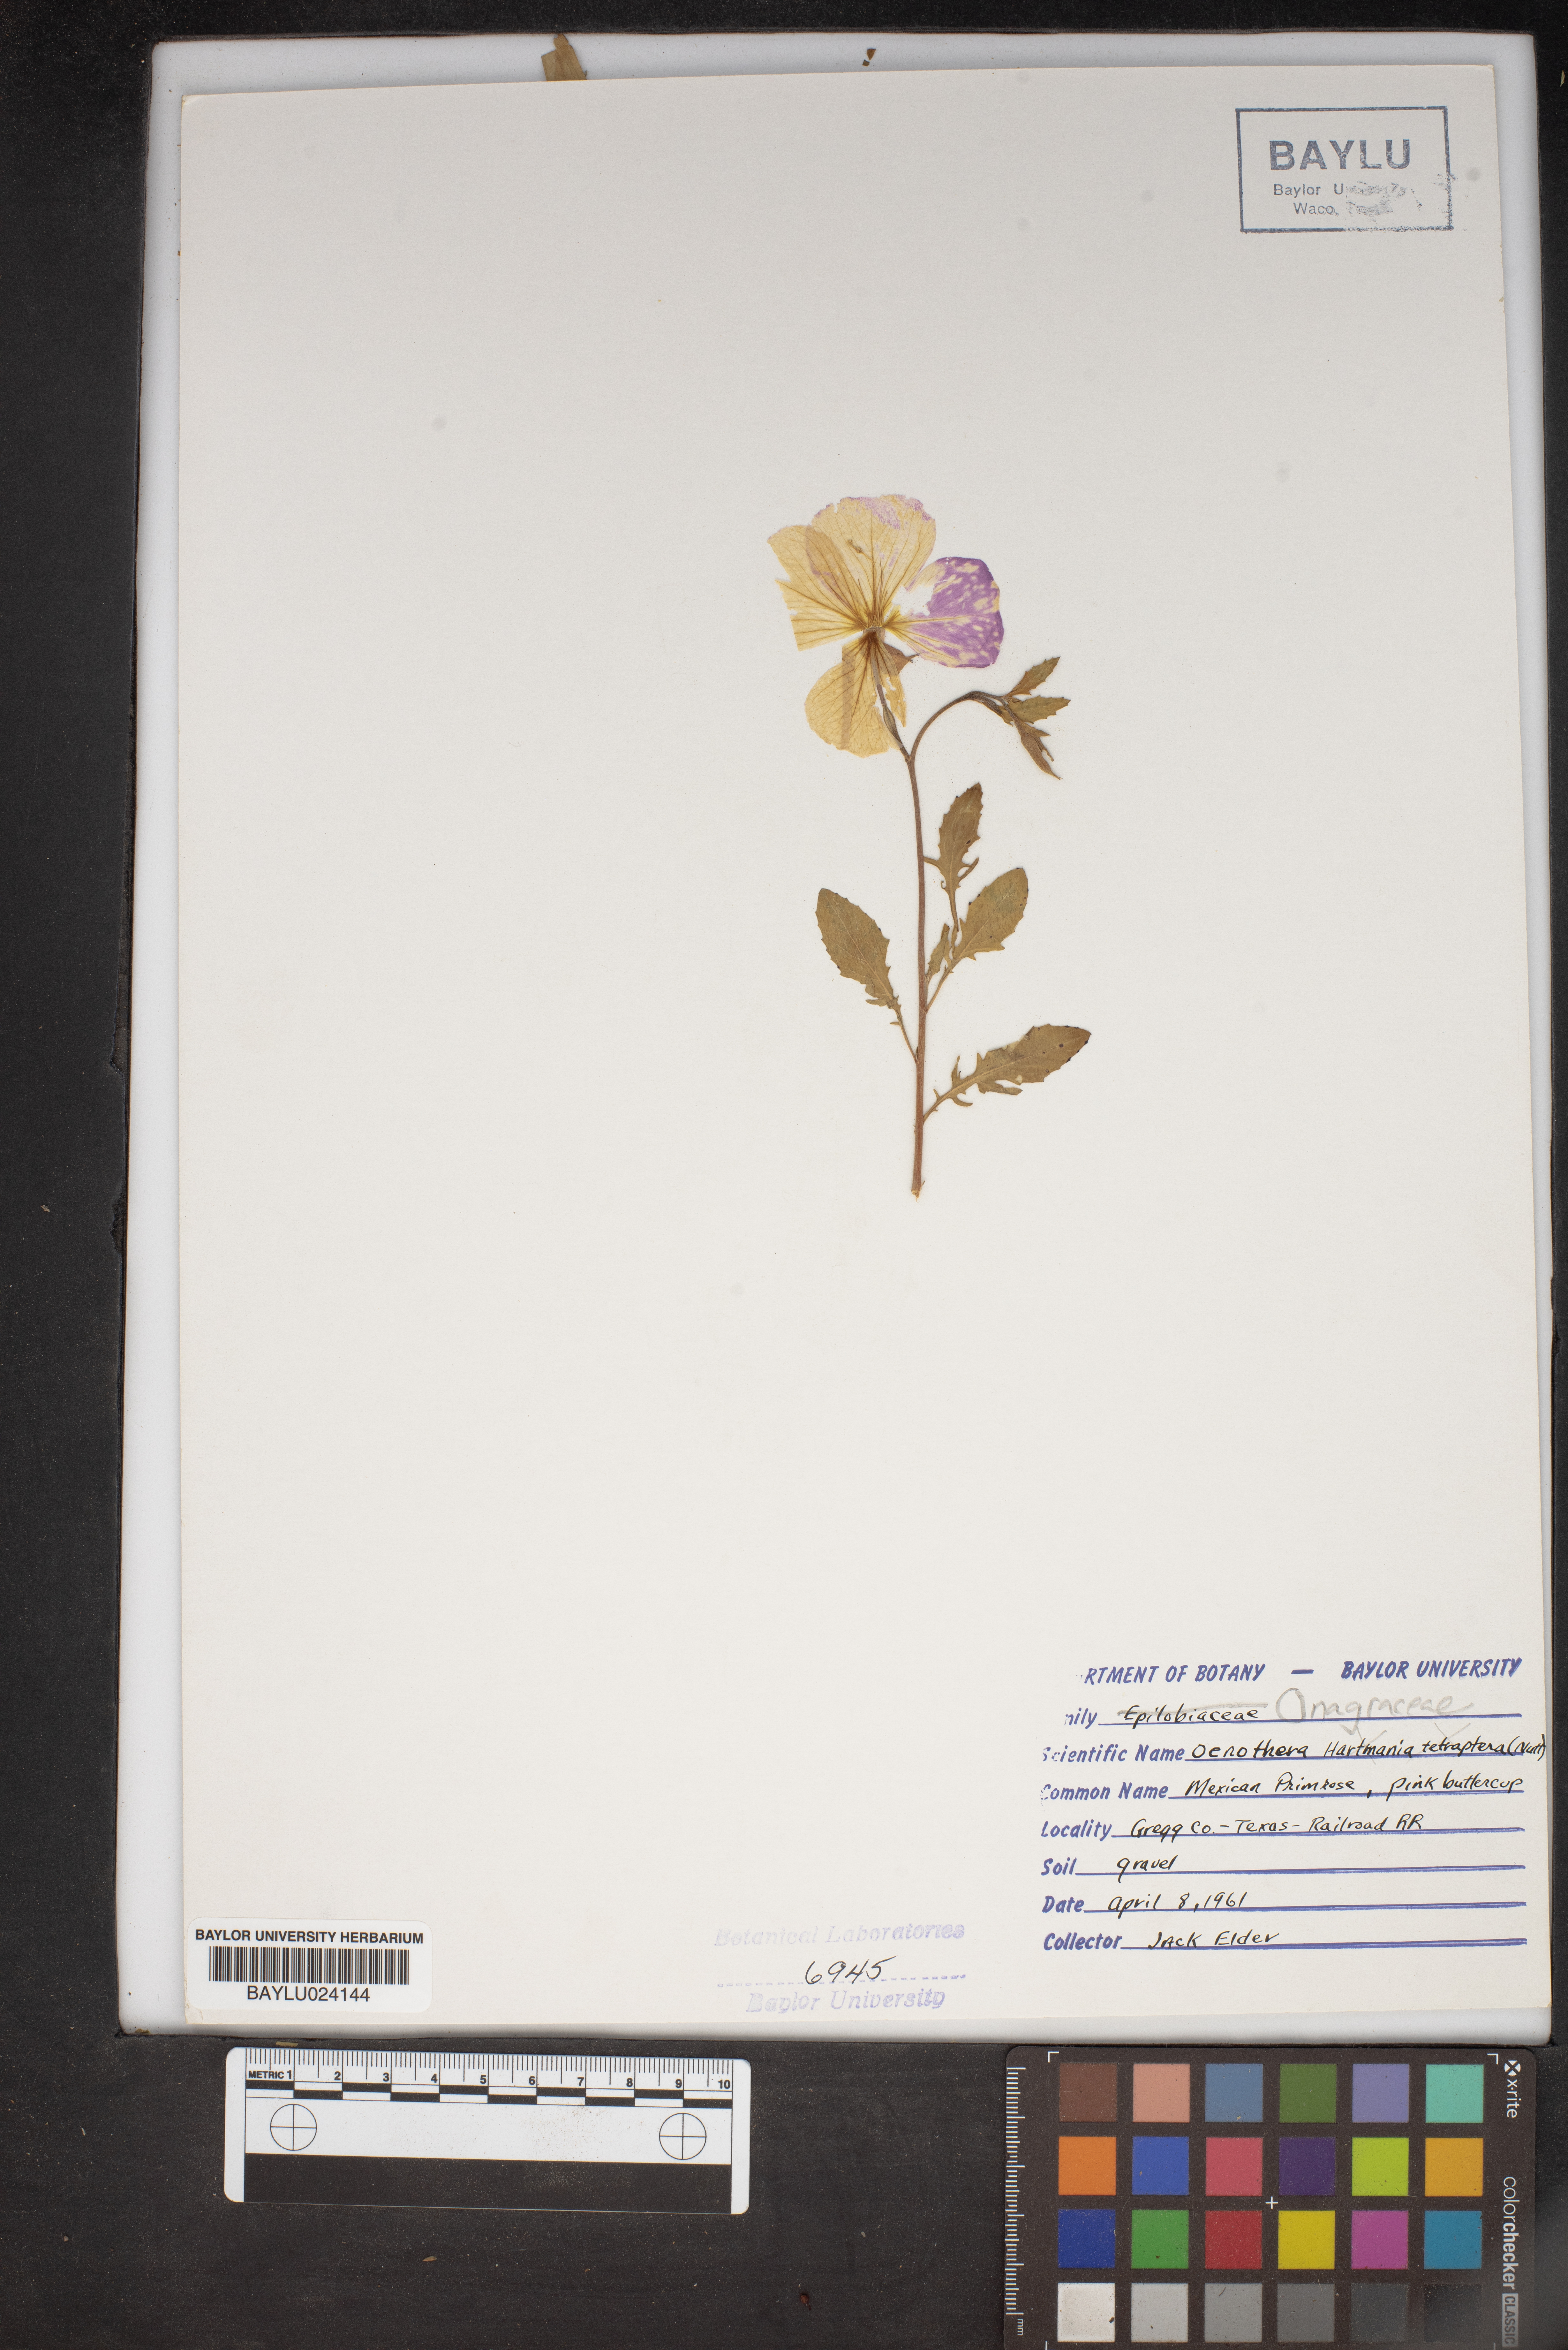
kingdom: Plantae
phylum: Tracheophyta
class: Magnoliopsida
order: Myrtales
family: Onagraceae
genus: Oenothera
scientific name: Oenothera tetraptera
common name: Four-wing evening-primrose
